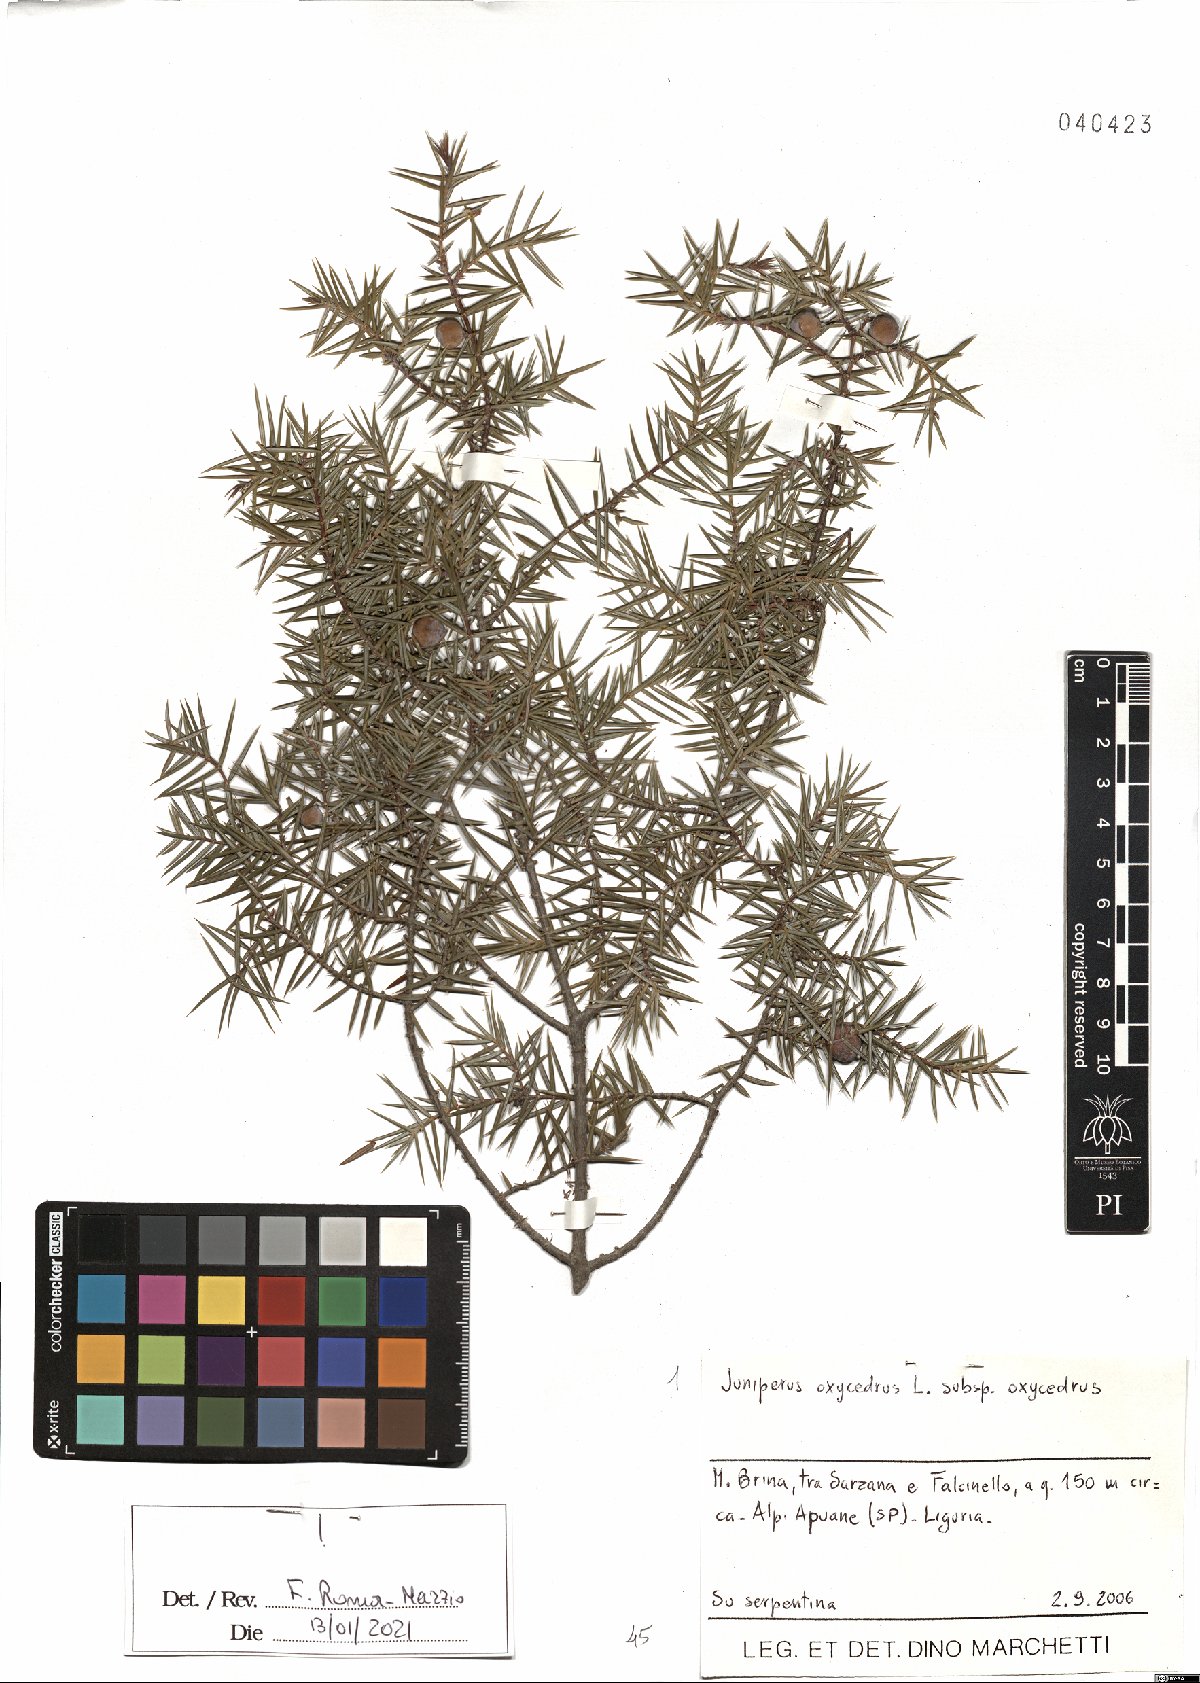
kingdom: Plantae
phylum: Tracheophyta
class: Pinopsida
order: Pinales
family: Cupressaceae
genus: Juniperus
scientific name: Juniperus oxycedrus
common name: Prickly juniper
